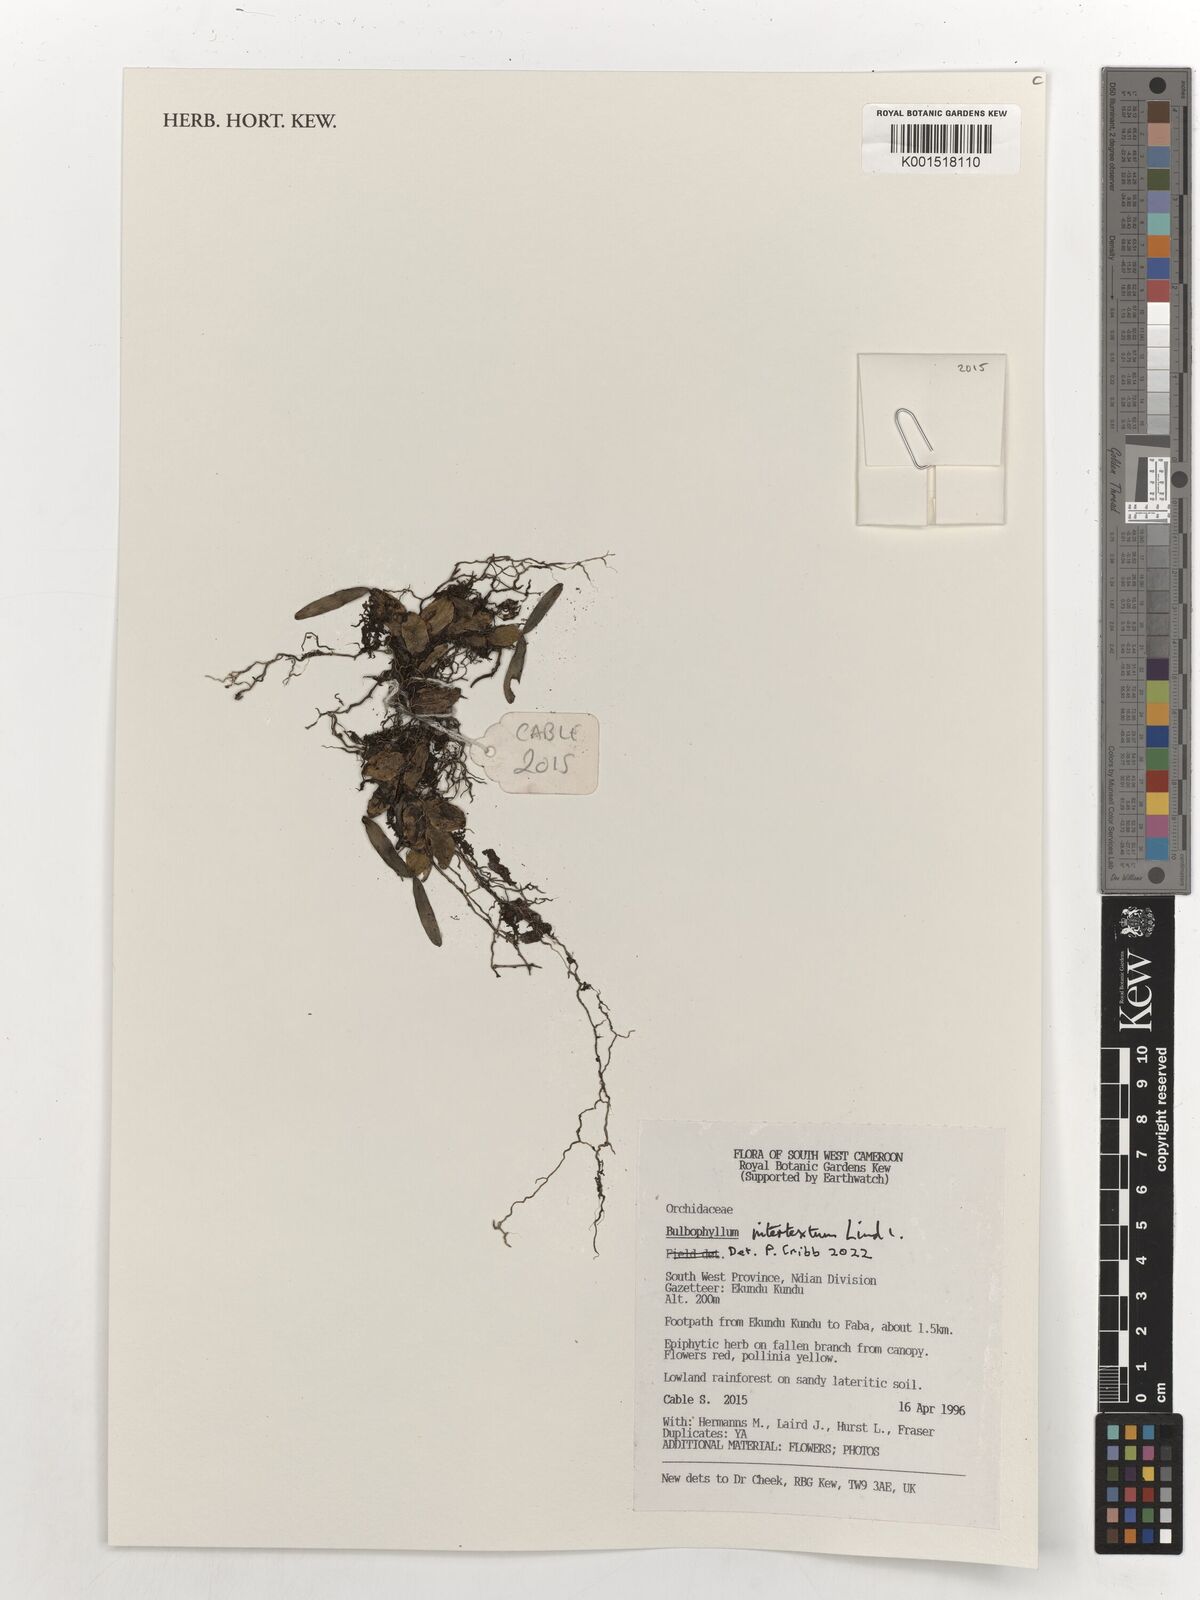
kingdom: Plantae
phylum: Tracheophyta
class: Liliopsida
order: Asparagales
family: Orchidaceae
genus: Bulbophyllum
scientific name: Bulbophyllum intertextum
